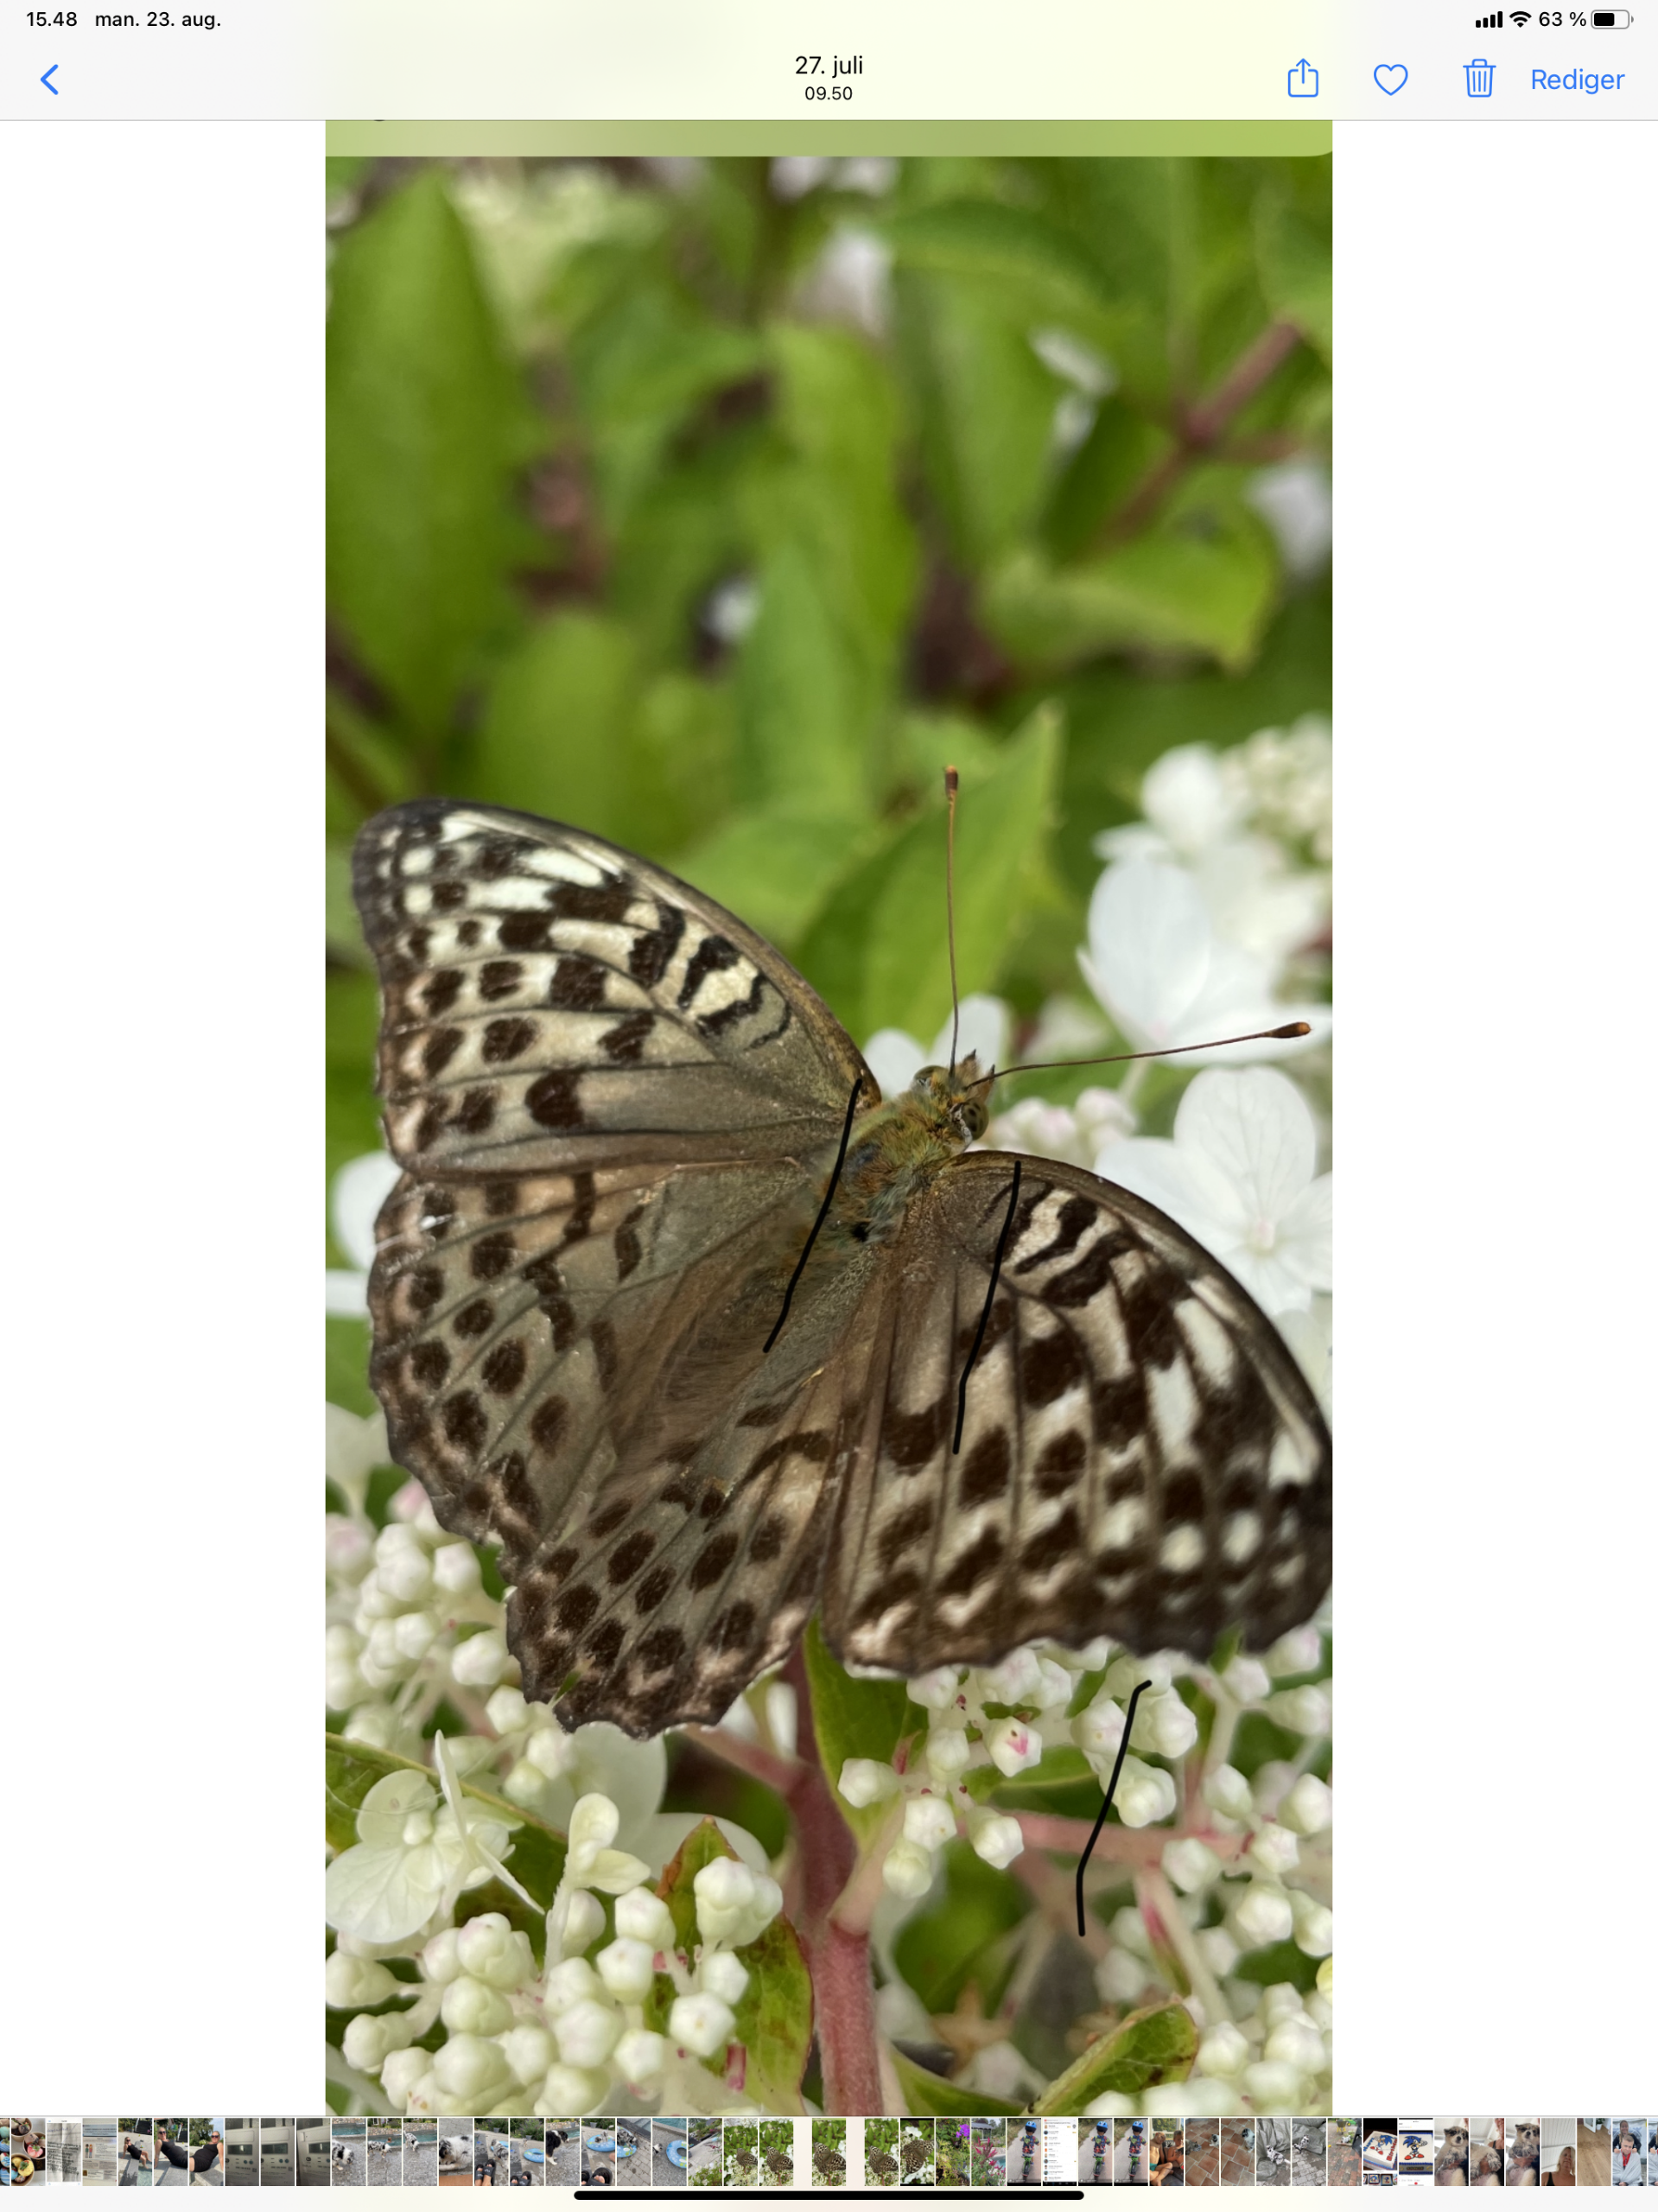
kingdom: Animalia
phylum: Arthropoda
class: Insecta
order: Lepidoptera
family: Nymphalidae
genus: Argynnis
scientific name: Argynnis paphia
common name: Kejserkåbe
